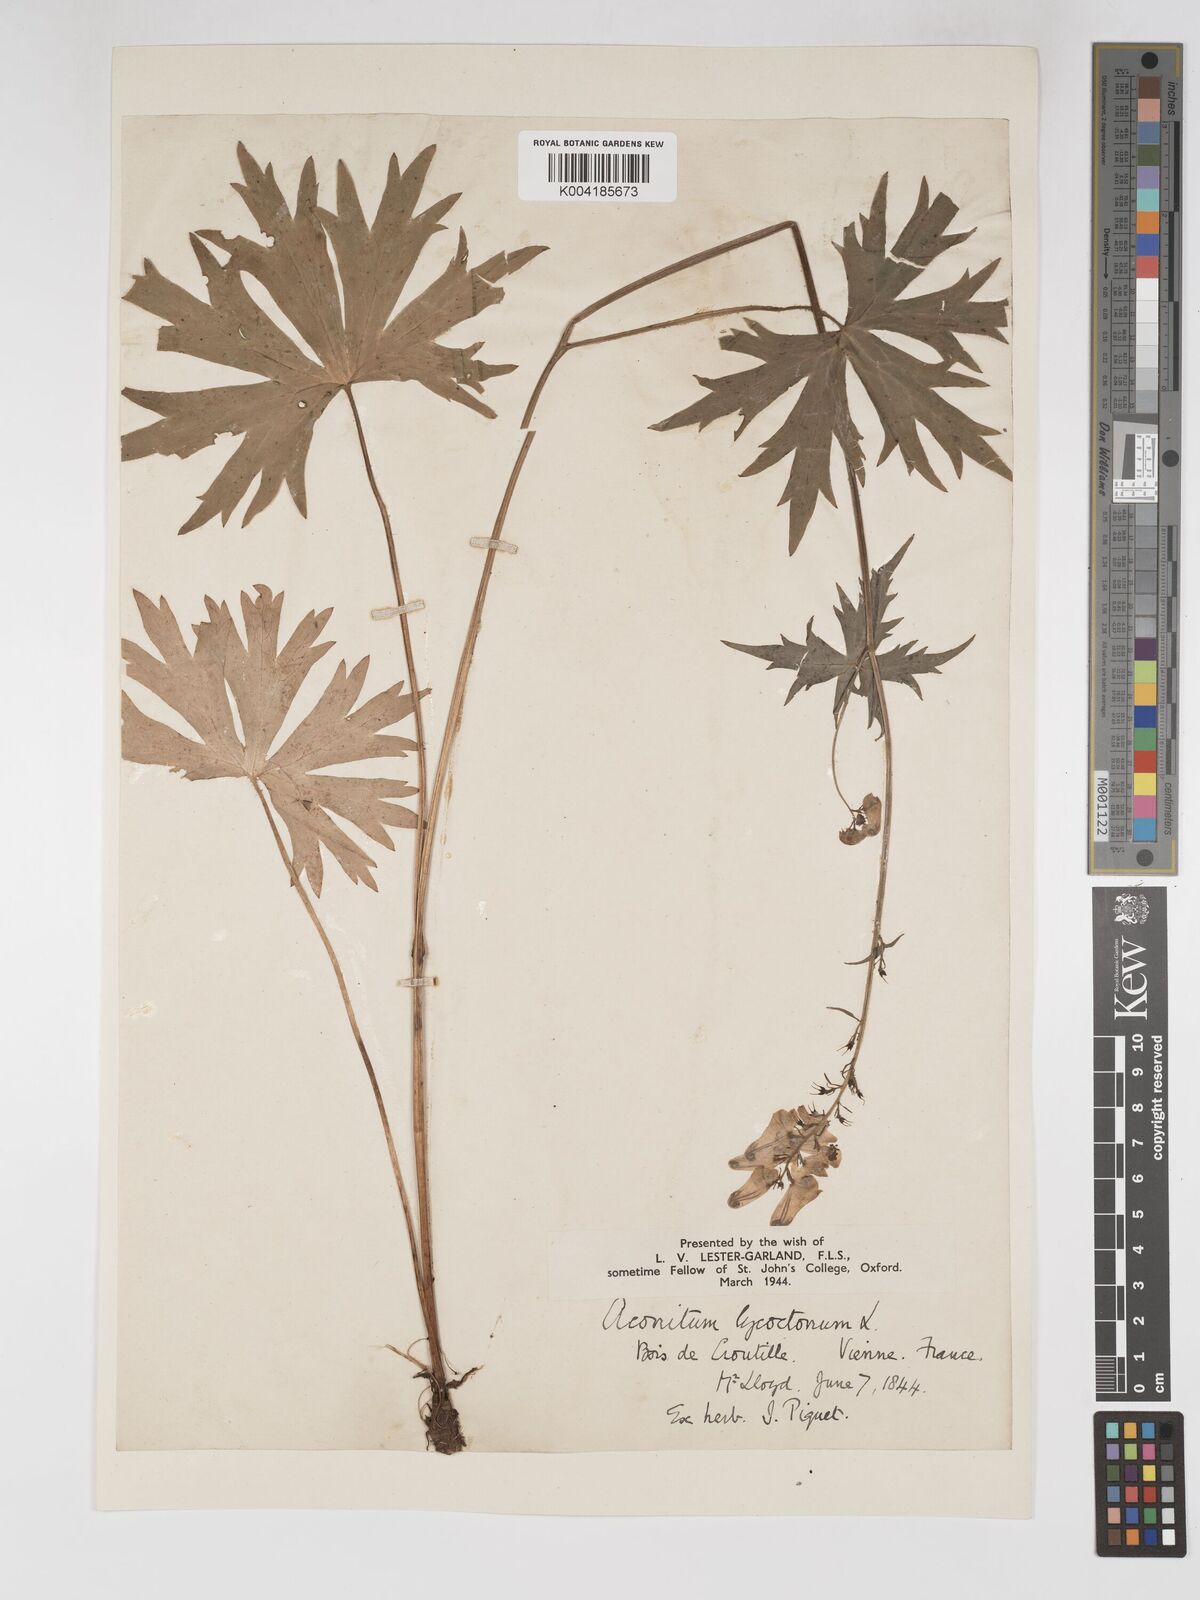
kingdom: Plantae
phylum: Tracheophyta
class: Magnoliopsida
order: Ranunculales
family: Ranunculaceae
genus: Aconitum
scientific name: Aconitum lycoctonum
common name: Wolf's-bane
